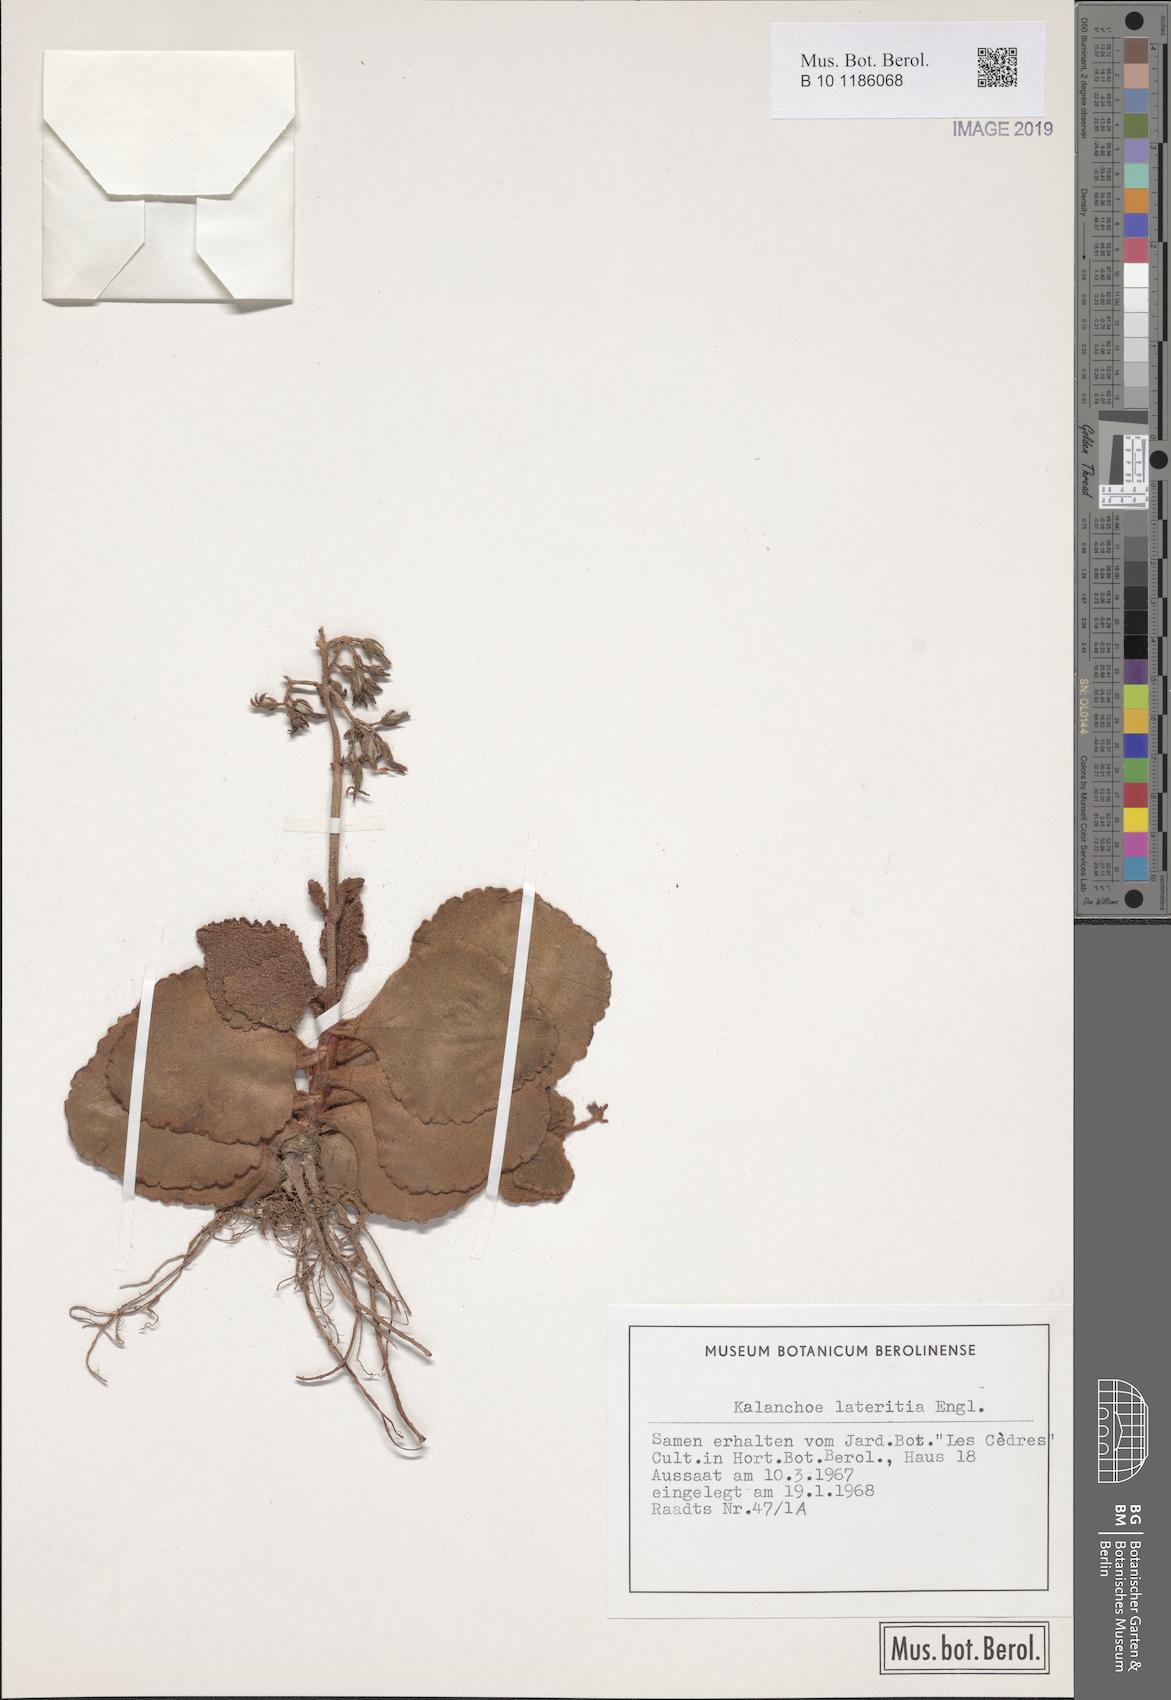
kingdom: Plantae
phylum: Tracheophyta
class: Magnoliopsida
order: Saxifragales
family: Crassulaceae
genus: Kalanchoe
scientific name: Kalanchoe lateritia
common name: Kalanchoe
